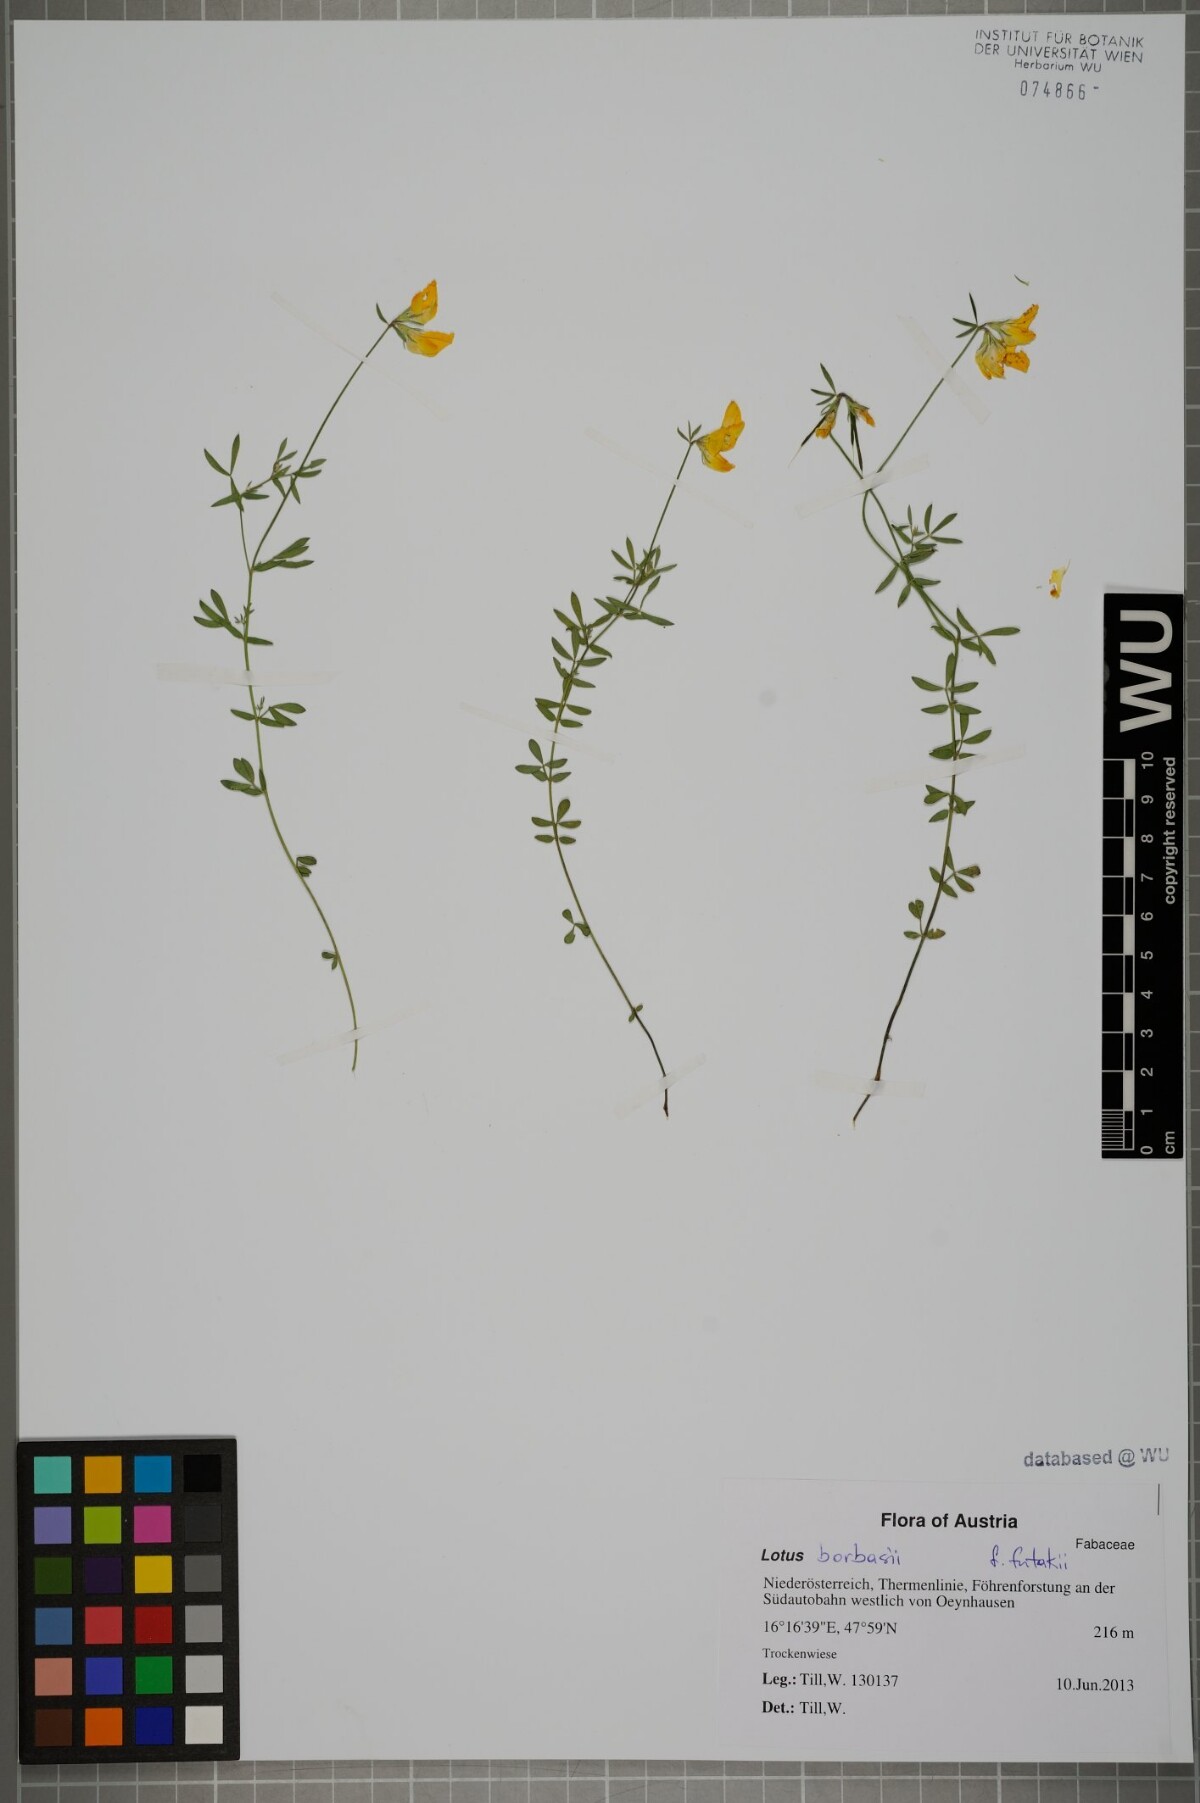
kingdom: Plantae
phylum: Tracheophyta
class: Magnoliopsida
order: Fabales
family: Fabaceae
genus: Lotus
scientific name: Lotus borbasii
